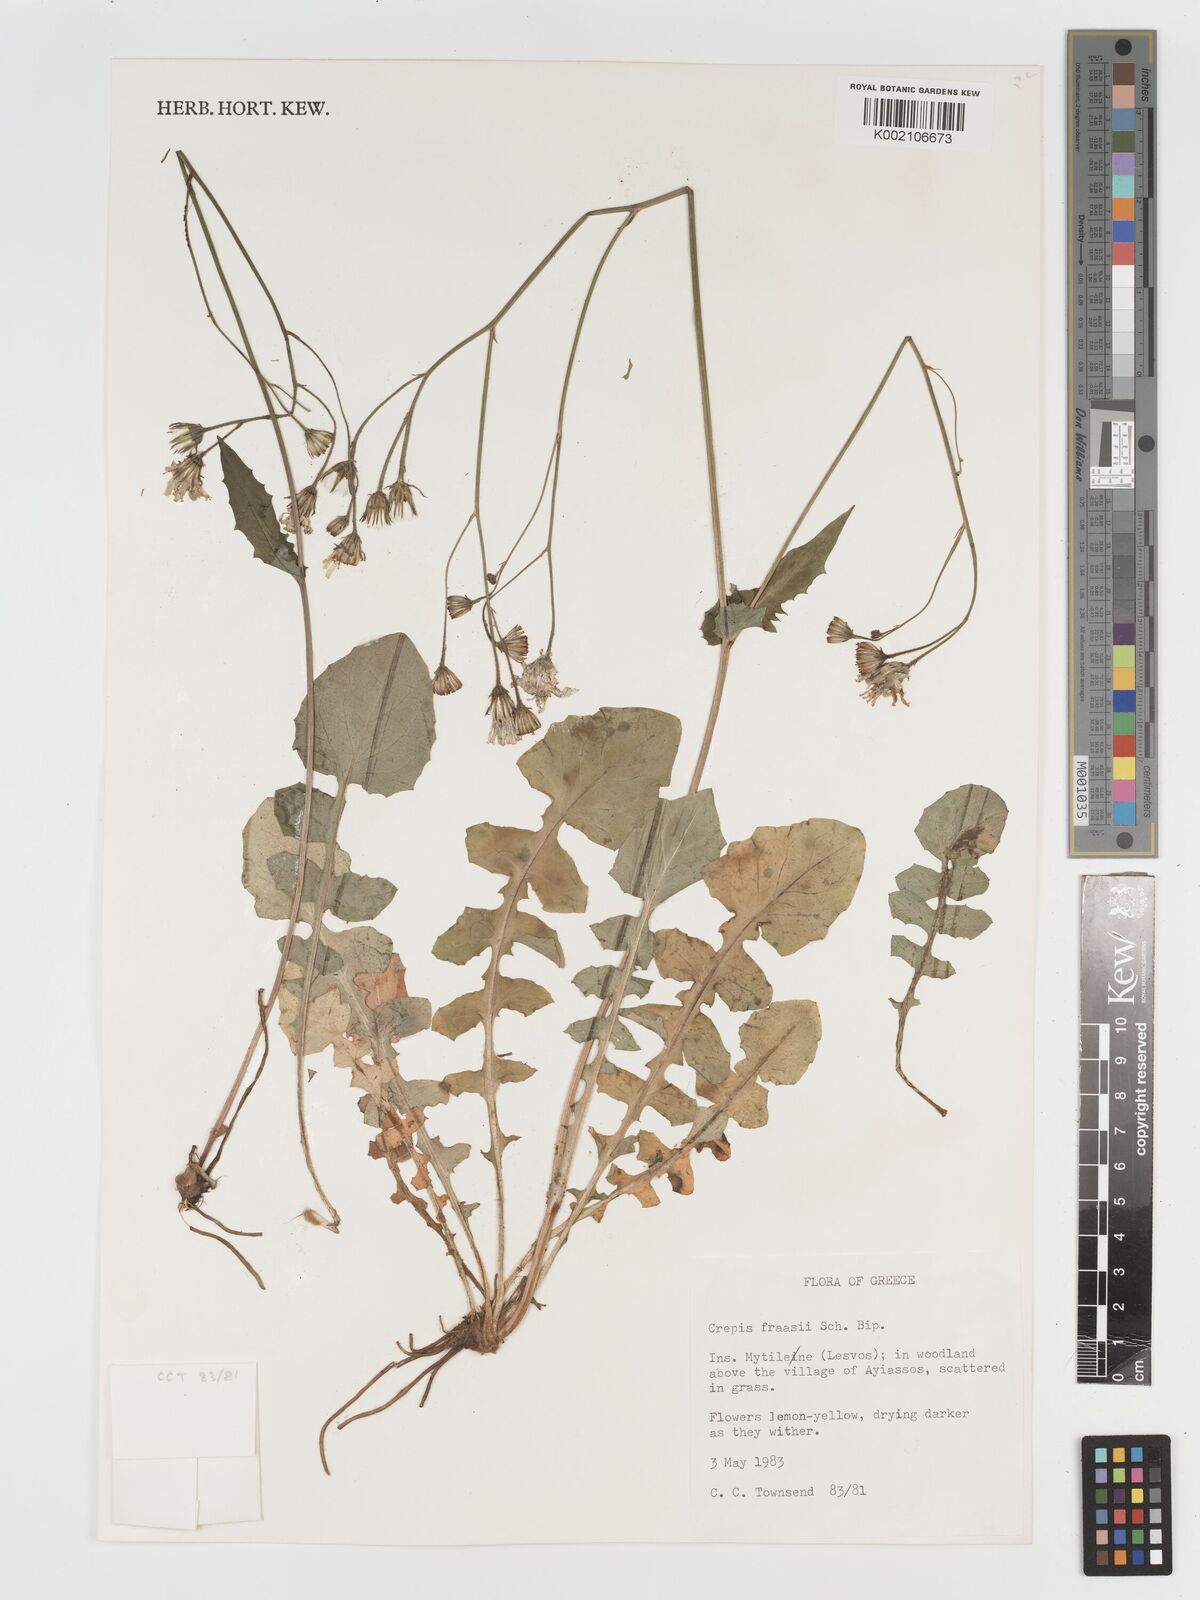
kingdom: Plantae
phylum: Tracheophyta
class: Magnoliopsida
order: Asterales
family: Asteraceae
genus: Crepis
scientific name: Crepis
